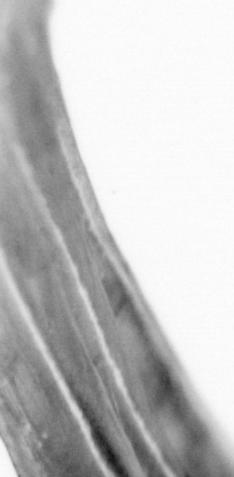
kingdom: Animalia
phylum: Chordata
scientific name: Chordata
